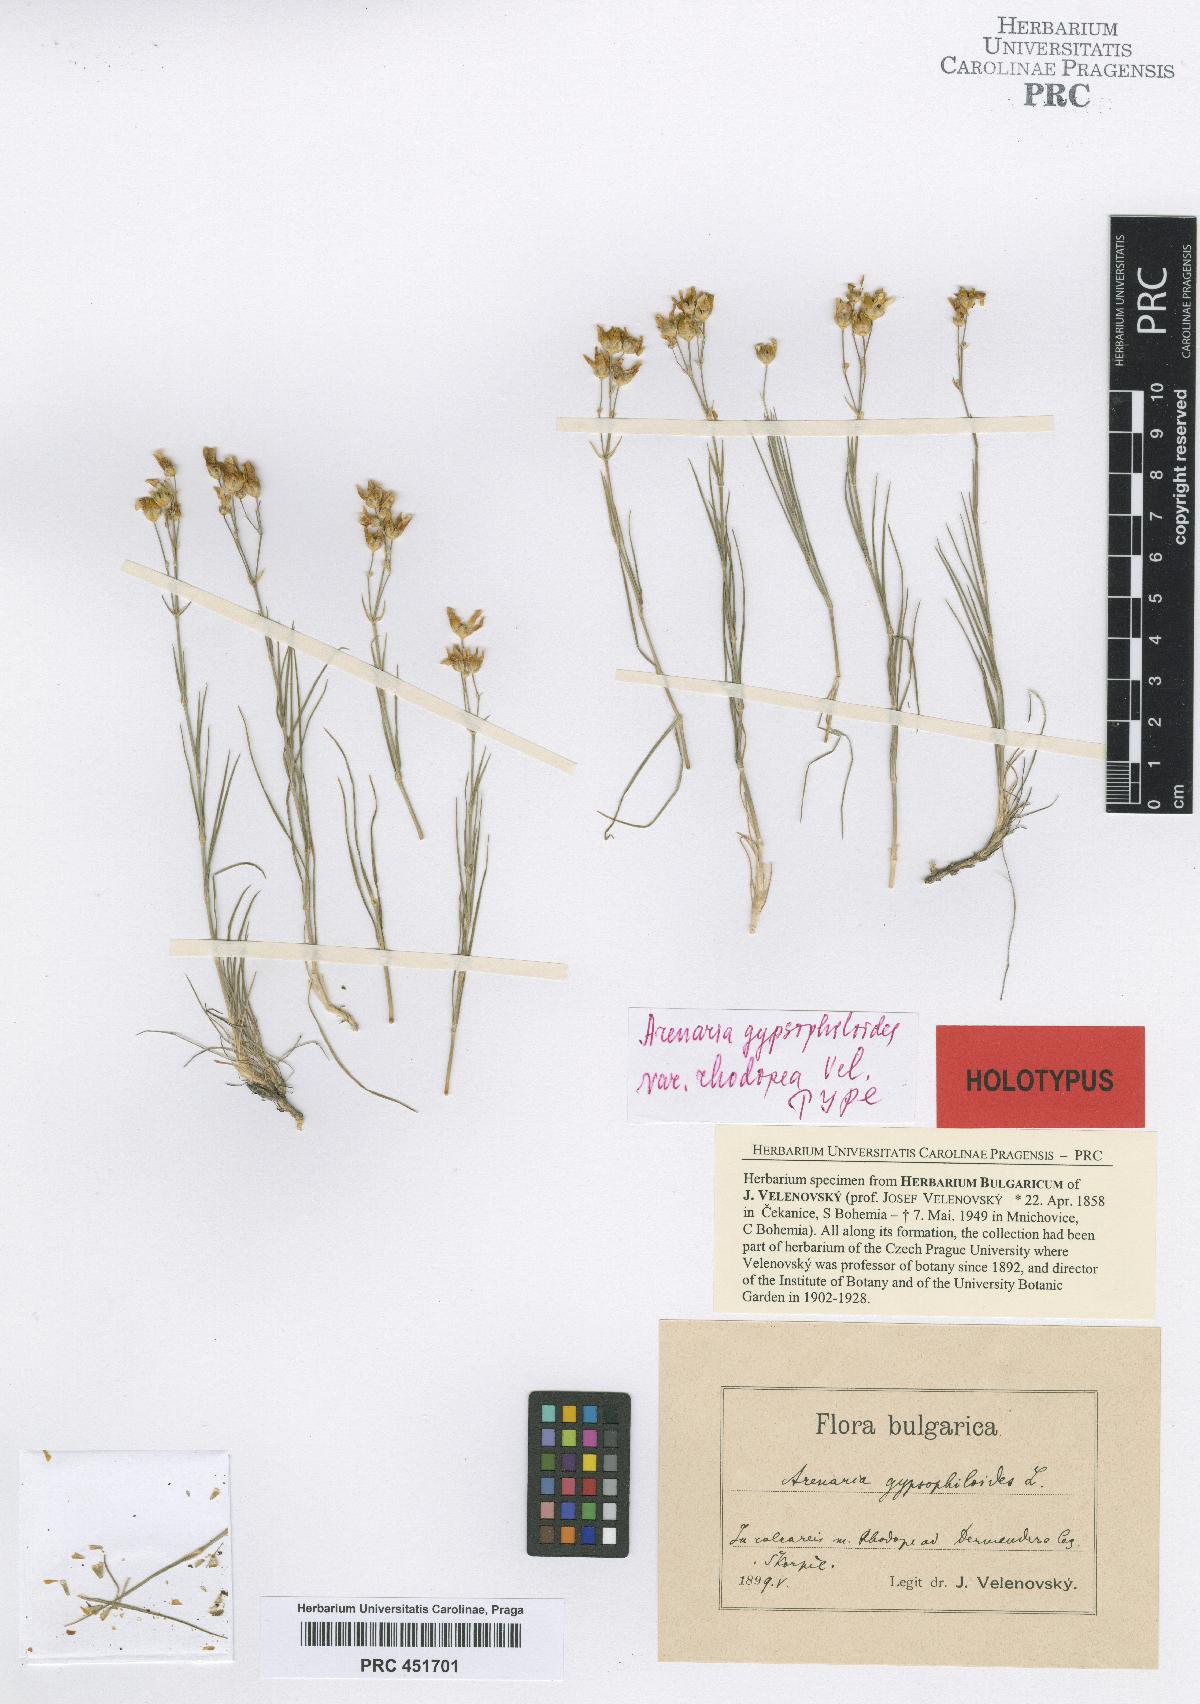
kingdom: Plantae
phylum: Tracheophyta
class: Magnoliopsida
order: Caryophyllales
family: Caryophyllaceae
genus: Eremogone
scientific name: Eremogone gypsophiloides
